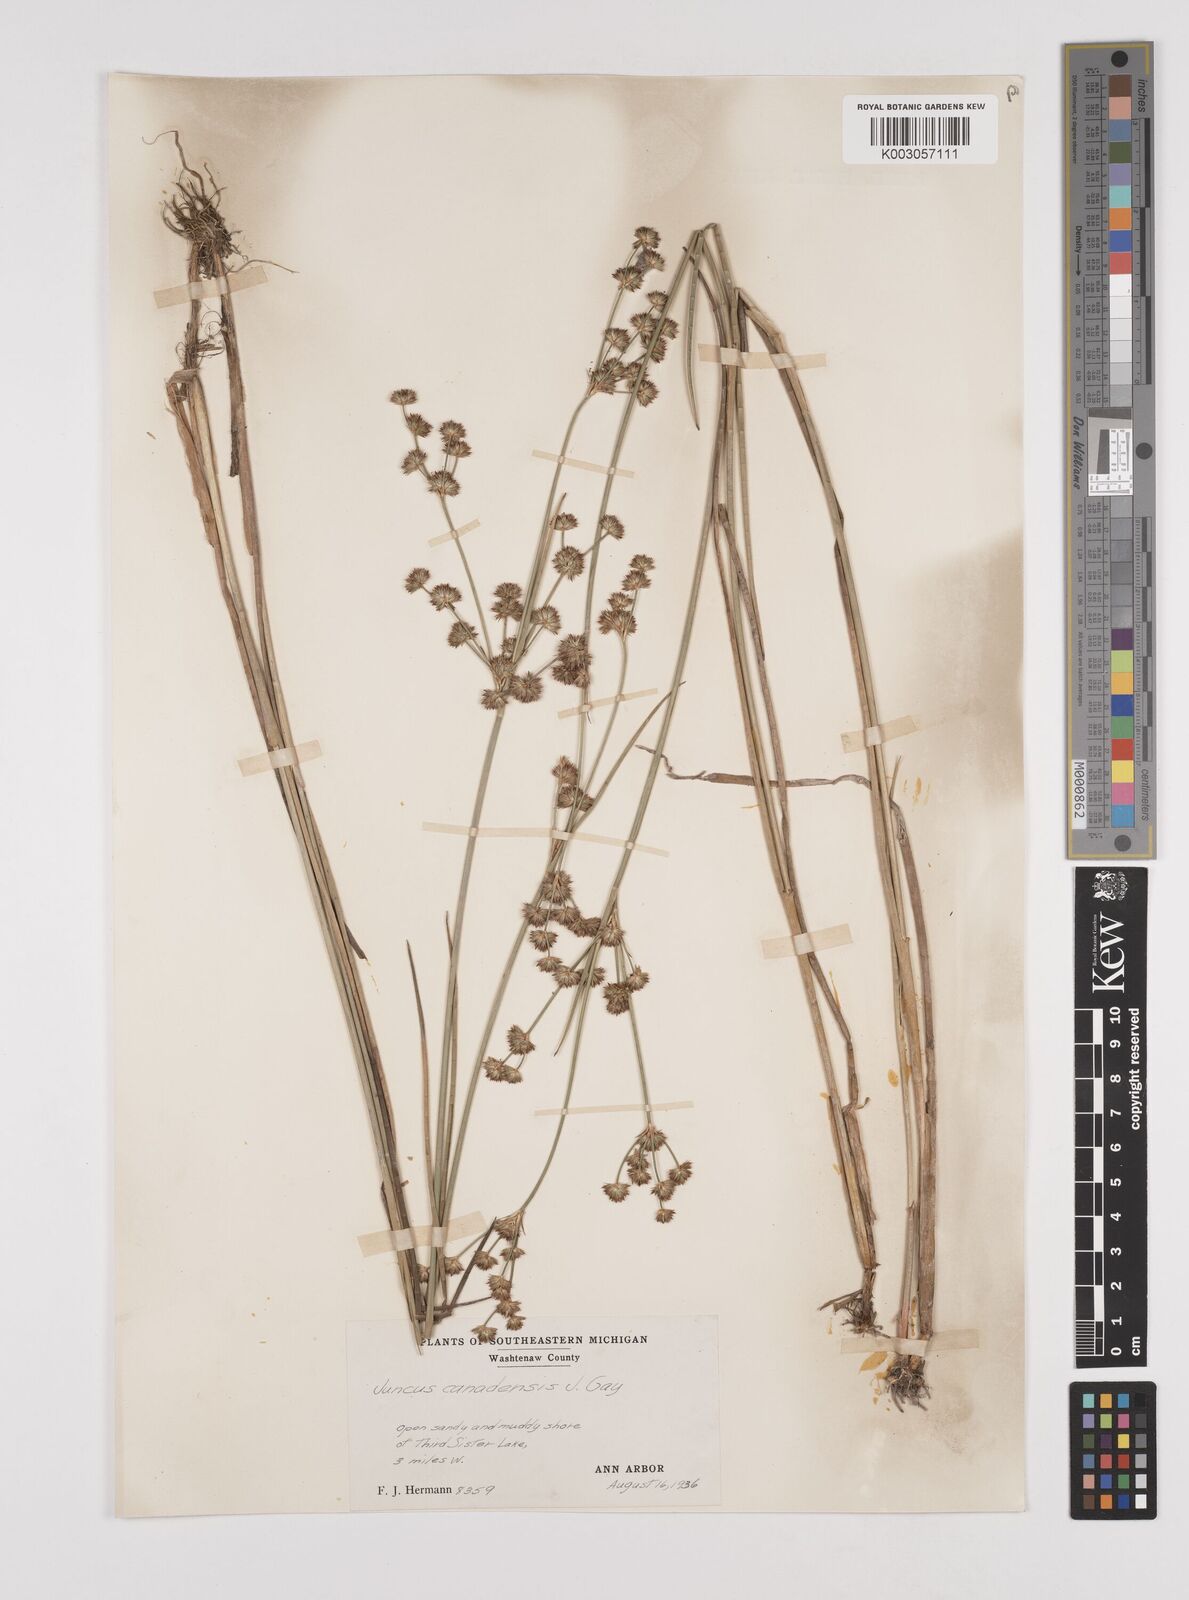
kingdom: Plantae
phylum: Tracheophyta
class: Liliopsida
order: Poales
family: Juncaceae
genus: Juncus
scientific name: Juncus canadensis
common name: Canada rush
